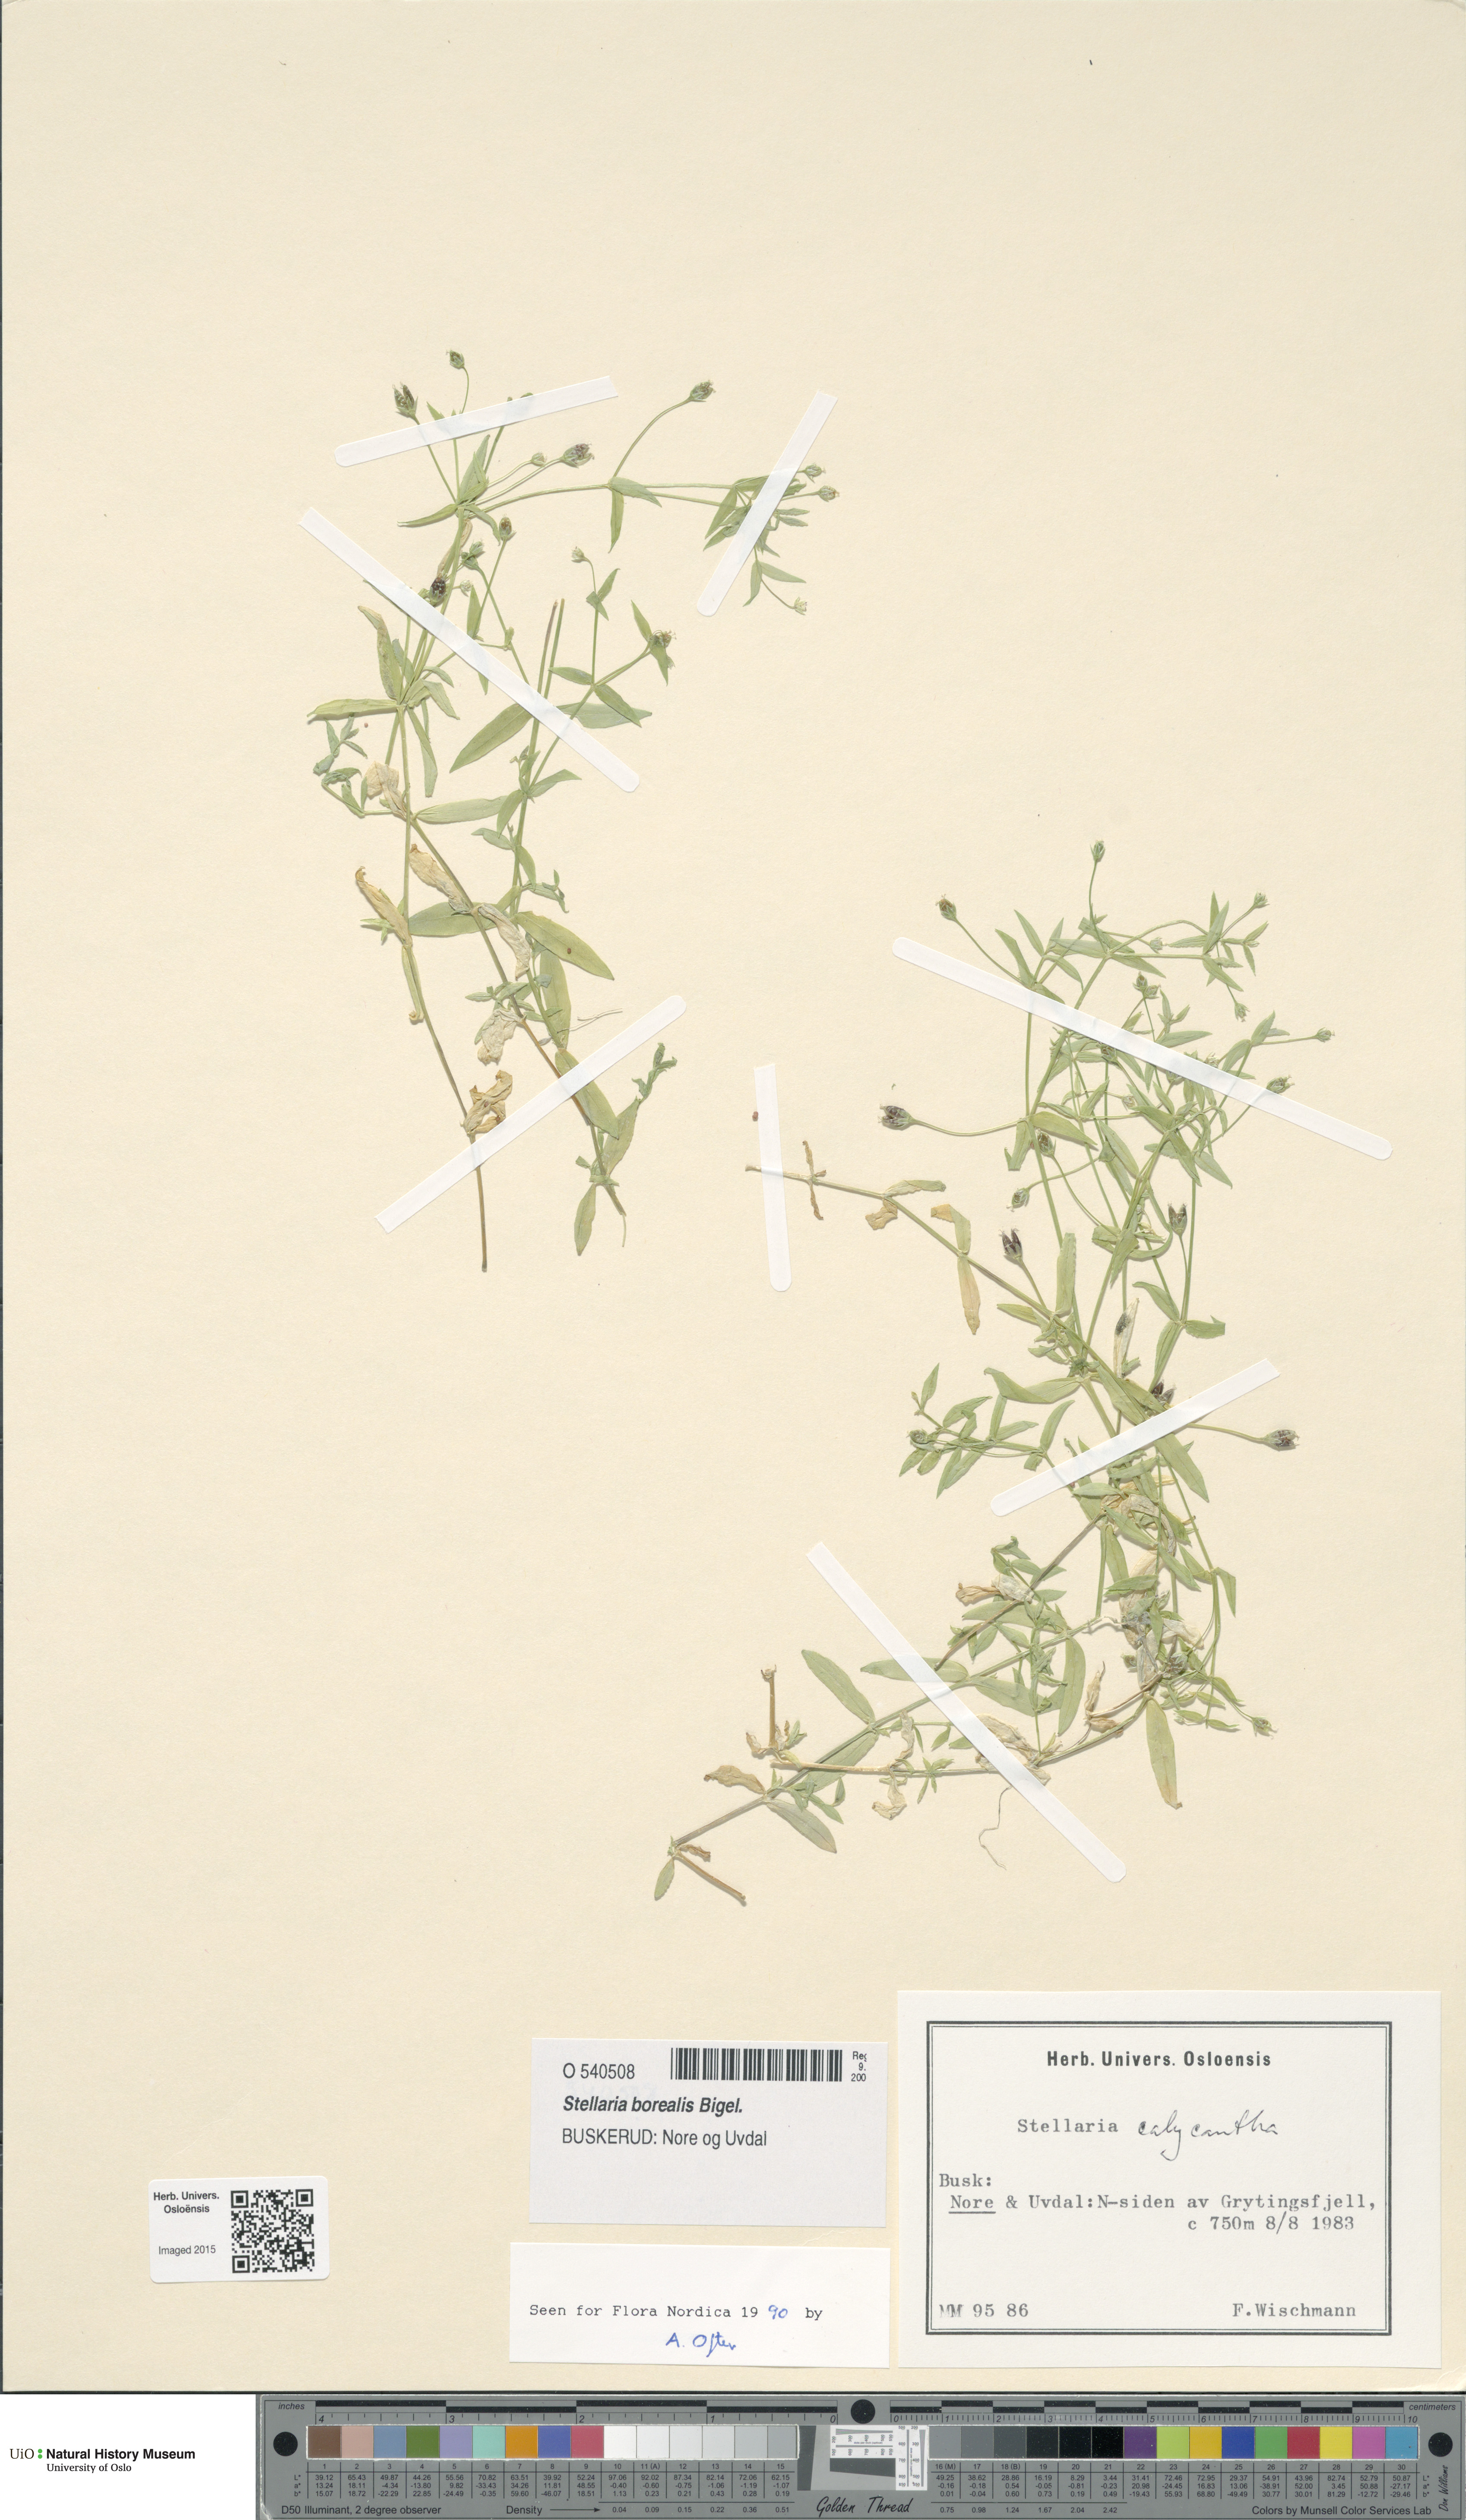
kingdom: Plantae
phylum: Tracheophyta
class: Magnoliopsida
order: Caryophyllales
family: Caryophyllaceae
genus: Stellaria
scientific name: Stellaria borealis
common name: Boreal starwort
